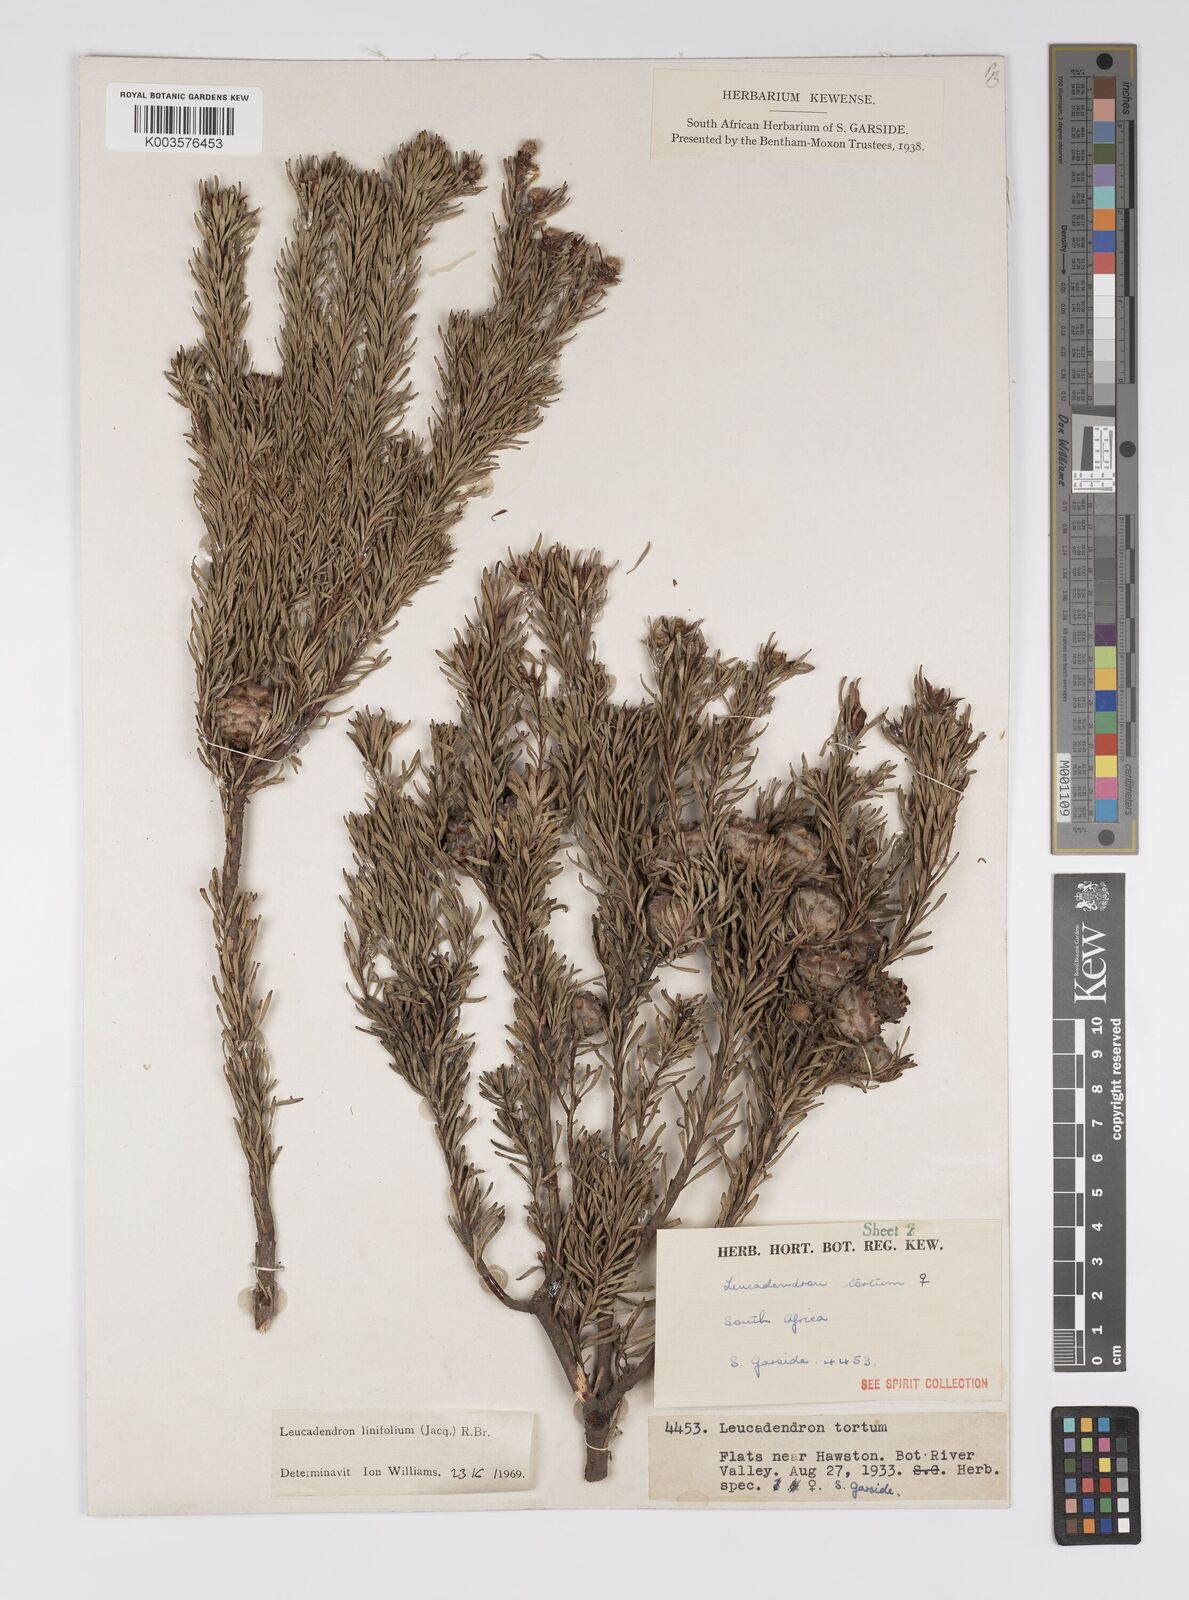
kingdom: Plantae
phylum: Tracheophyta
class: Magnoliopsida
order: Proteales
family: Proteaceae
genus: Leucadendron
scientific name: Leucadendron linifolium
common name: Line-leaf conebush
